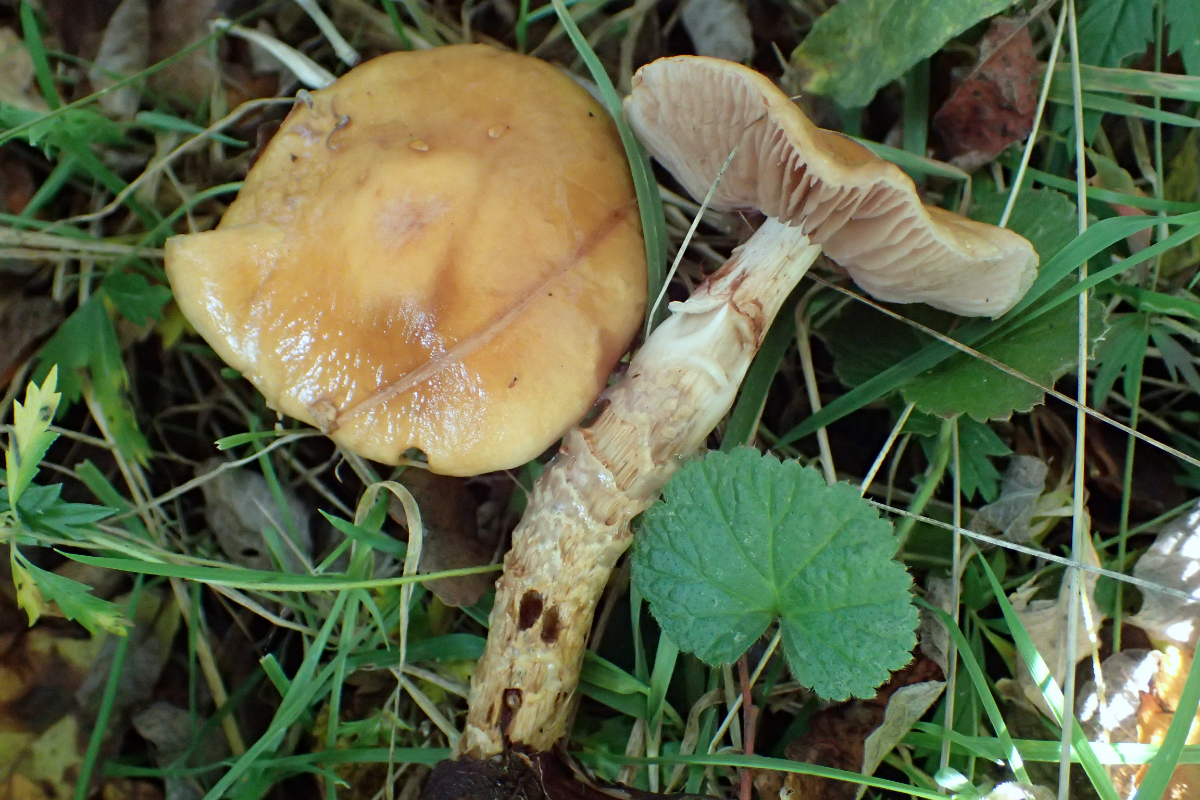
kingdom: Fungi
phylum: Basidiomycota
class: Agaricomycetes
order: Agaricales
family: Cortinariaceae
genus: Cortinarius
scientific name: Cortinarius trivialis
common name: brunslimet slørhat
